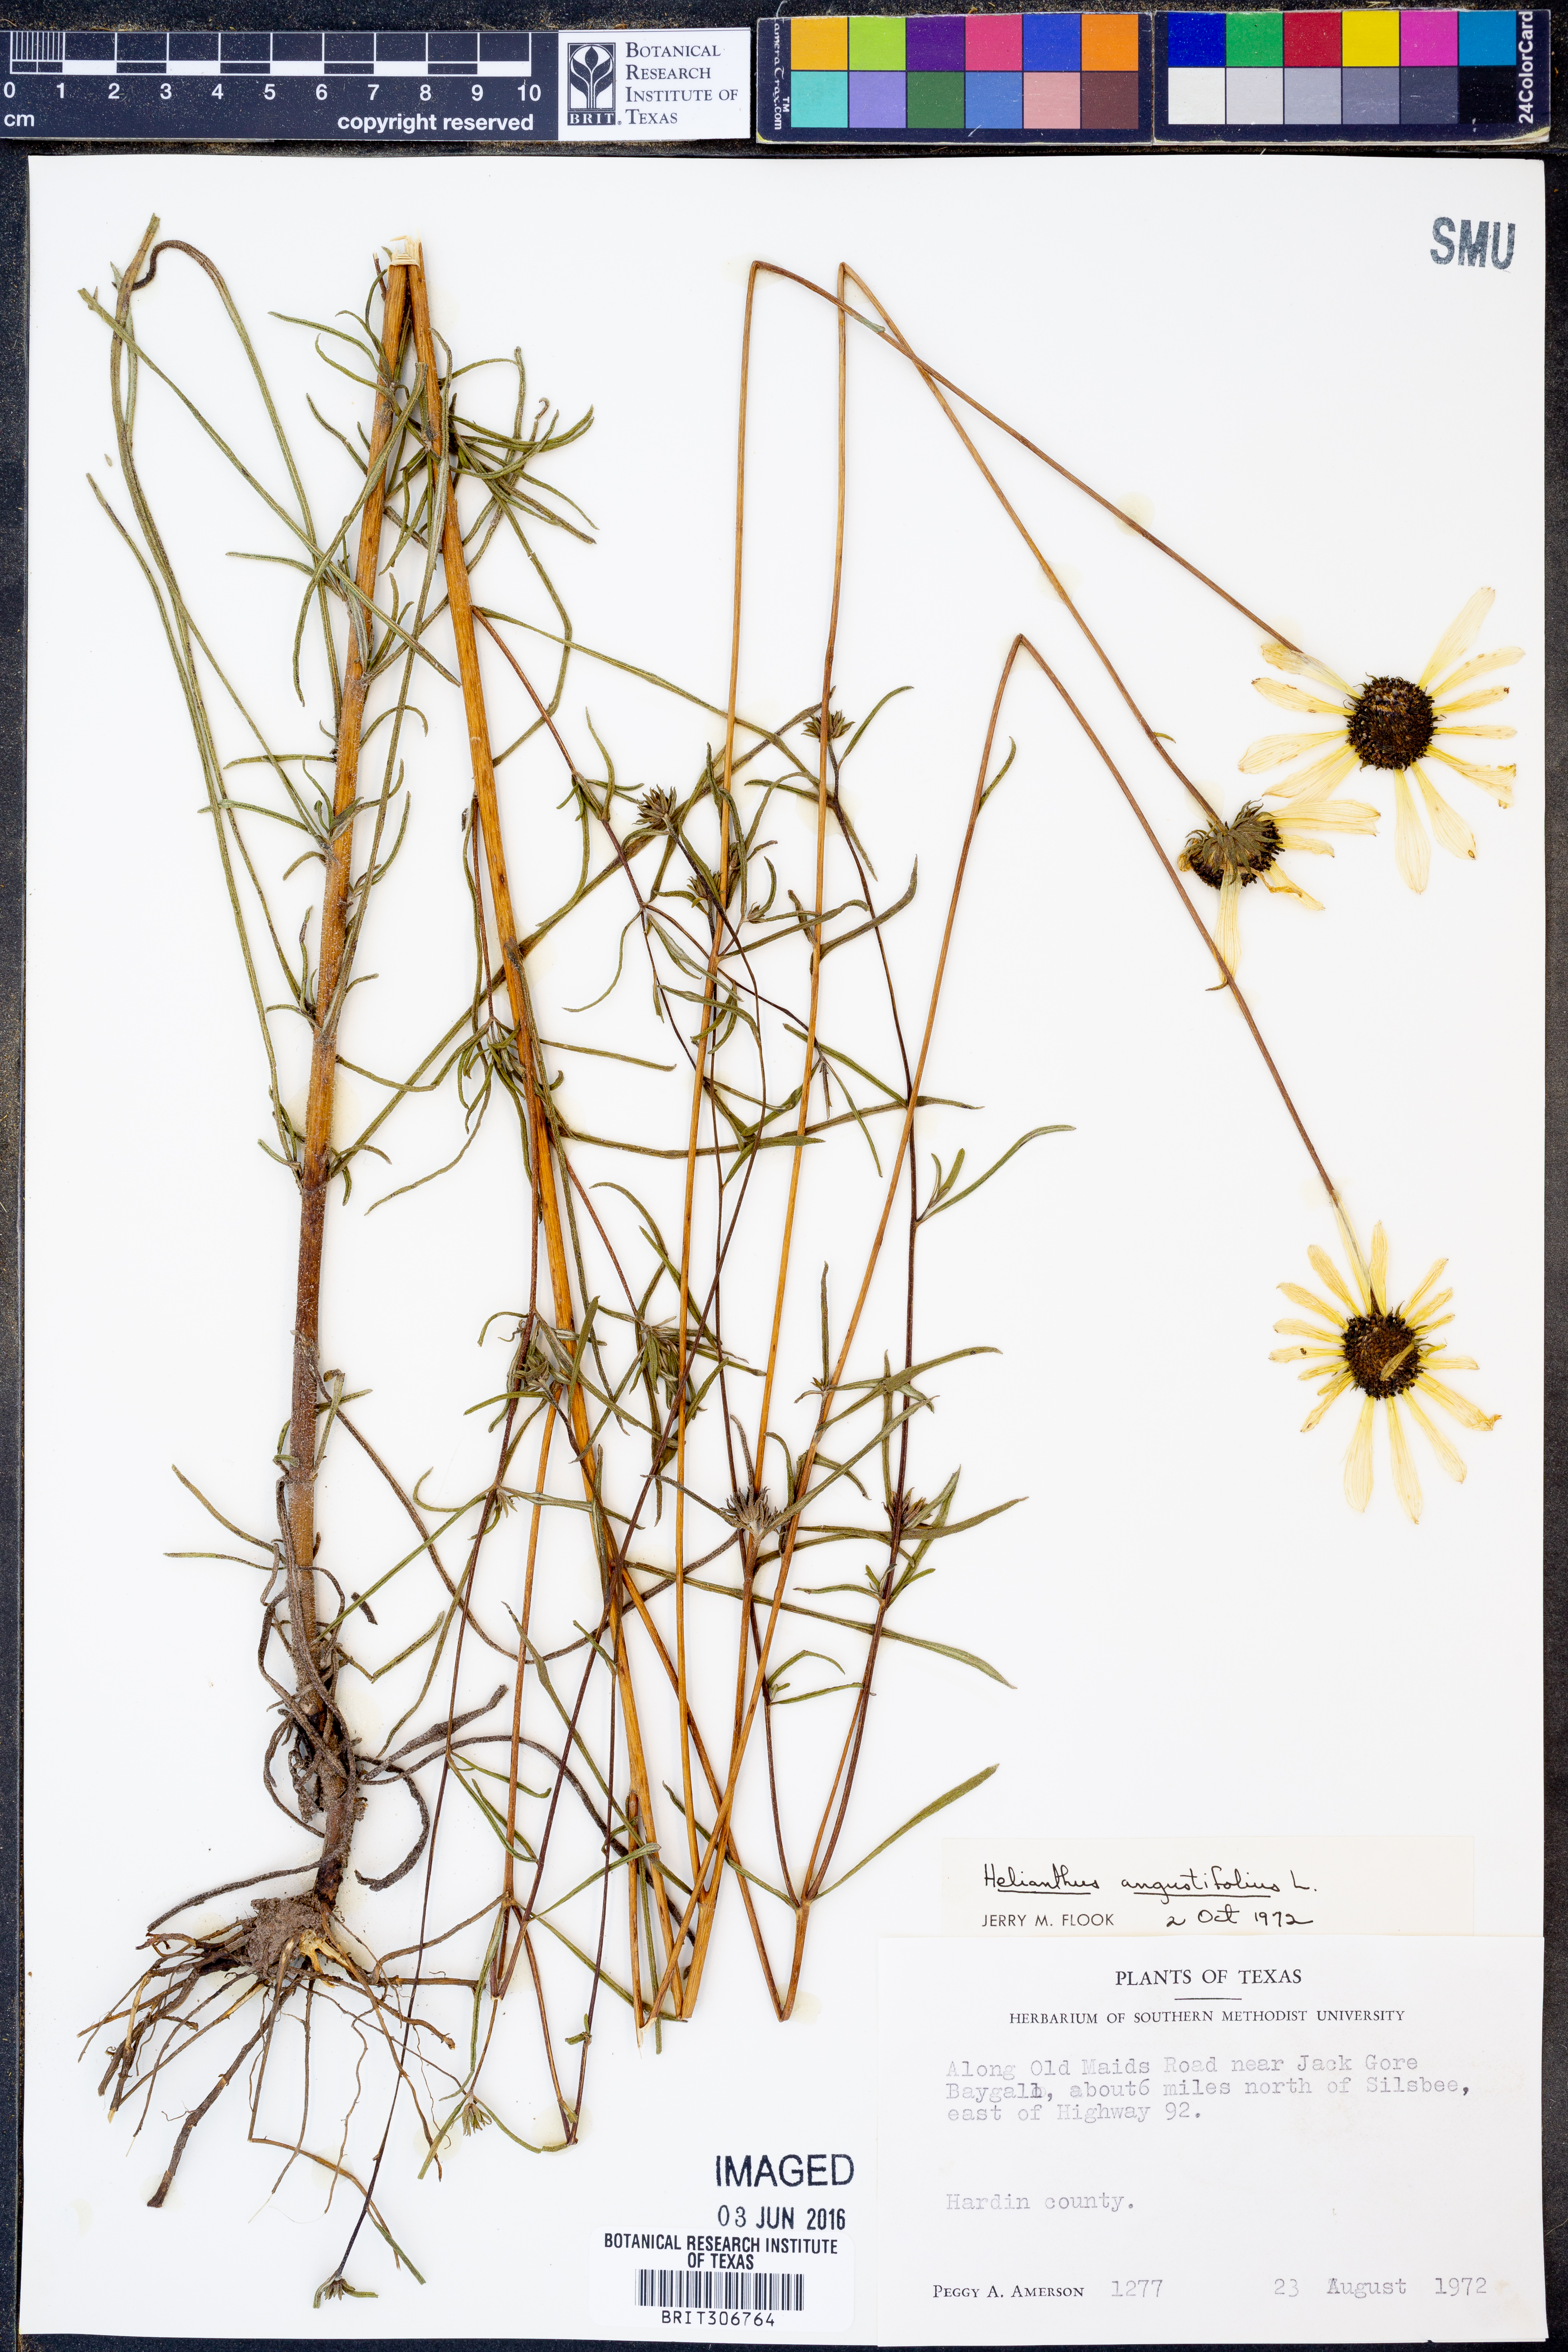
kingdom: Plantae
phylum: Tracheophyta
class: Magnoliopsida
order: Asterales
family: Asteraceae
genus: Helianthus
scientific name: Helianthus angustifolius
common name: Swamp sunflower
